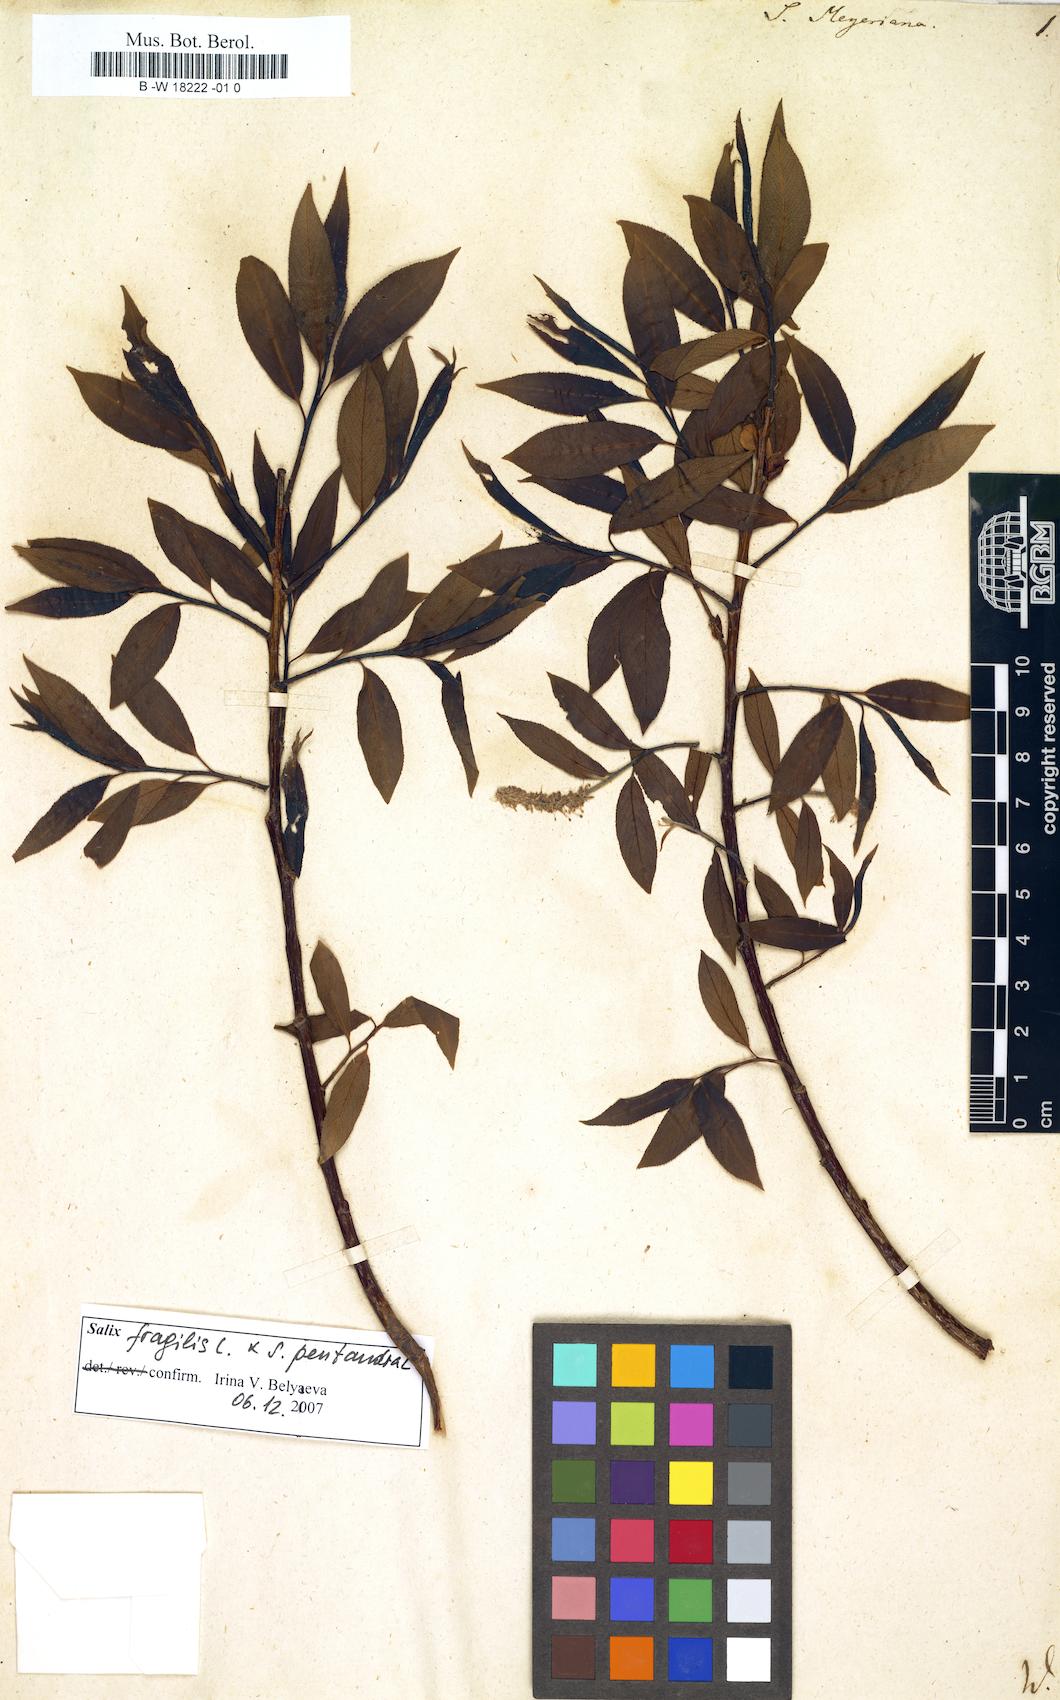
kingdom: Plantae
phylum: Tracheophyta
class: Magnoliopsida
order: Malpighiales
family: Salicaceae
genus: Salix
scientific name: Salix meyeriana
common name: Shiny-leaf willow
